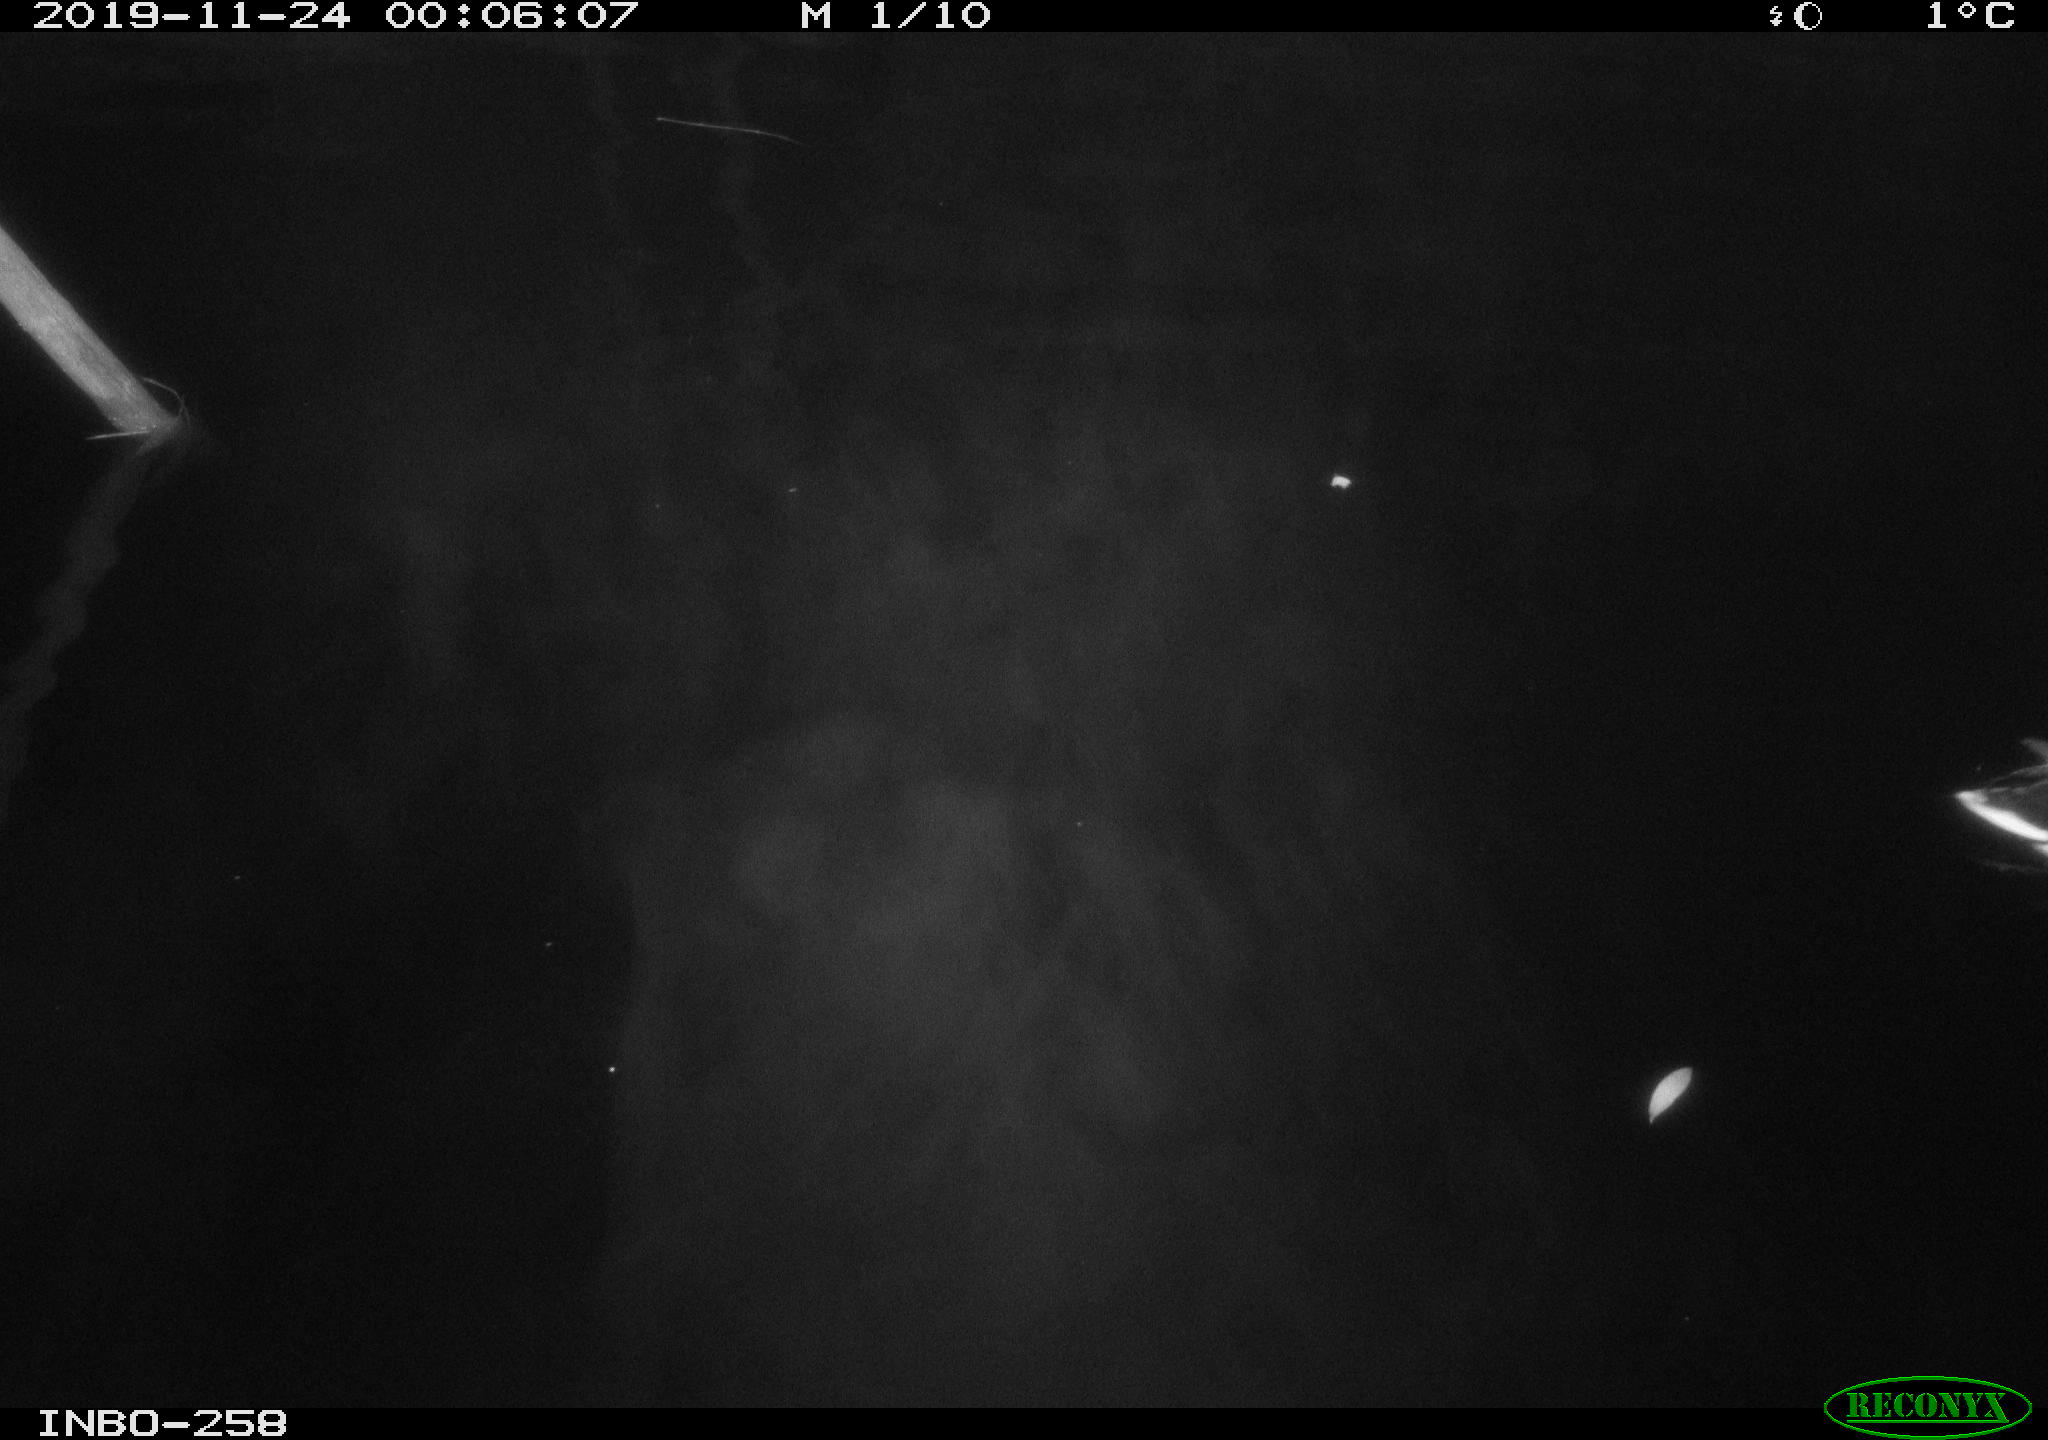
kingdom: Animalia
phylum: Chordata
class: Aves
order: Anseriformes
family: Anatidae
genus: Anas
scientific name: Anas platyrhynchos
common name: Mallard
